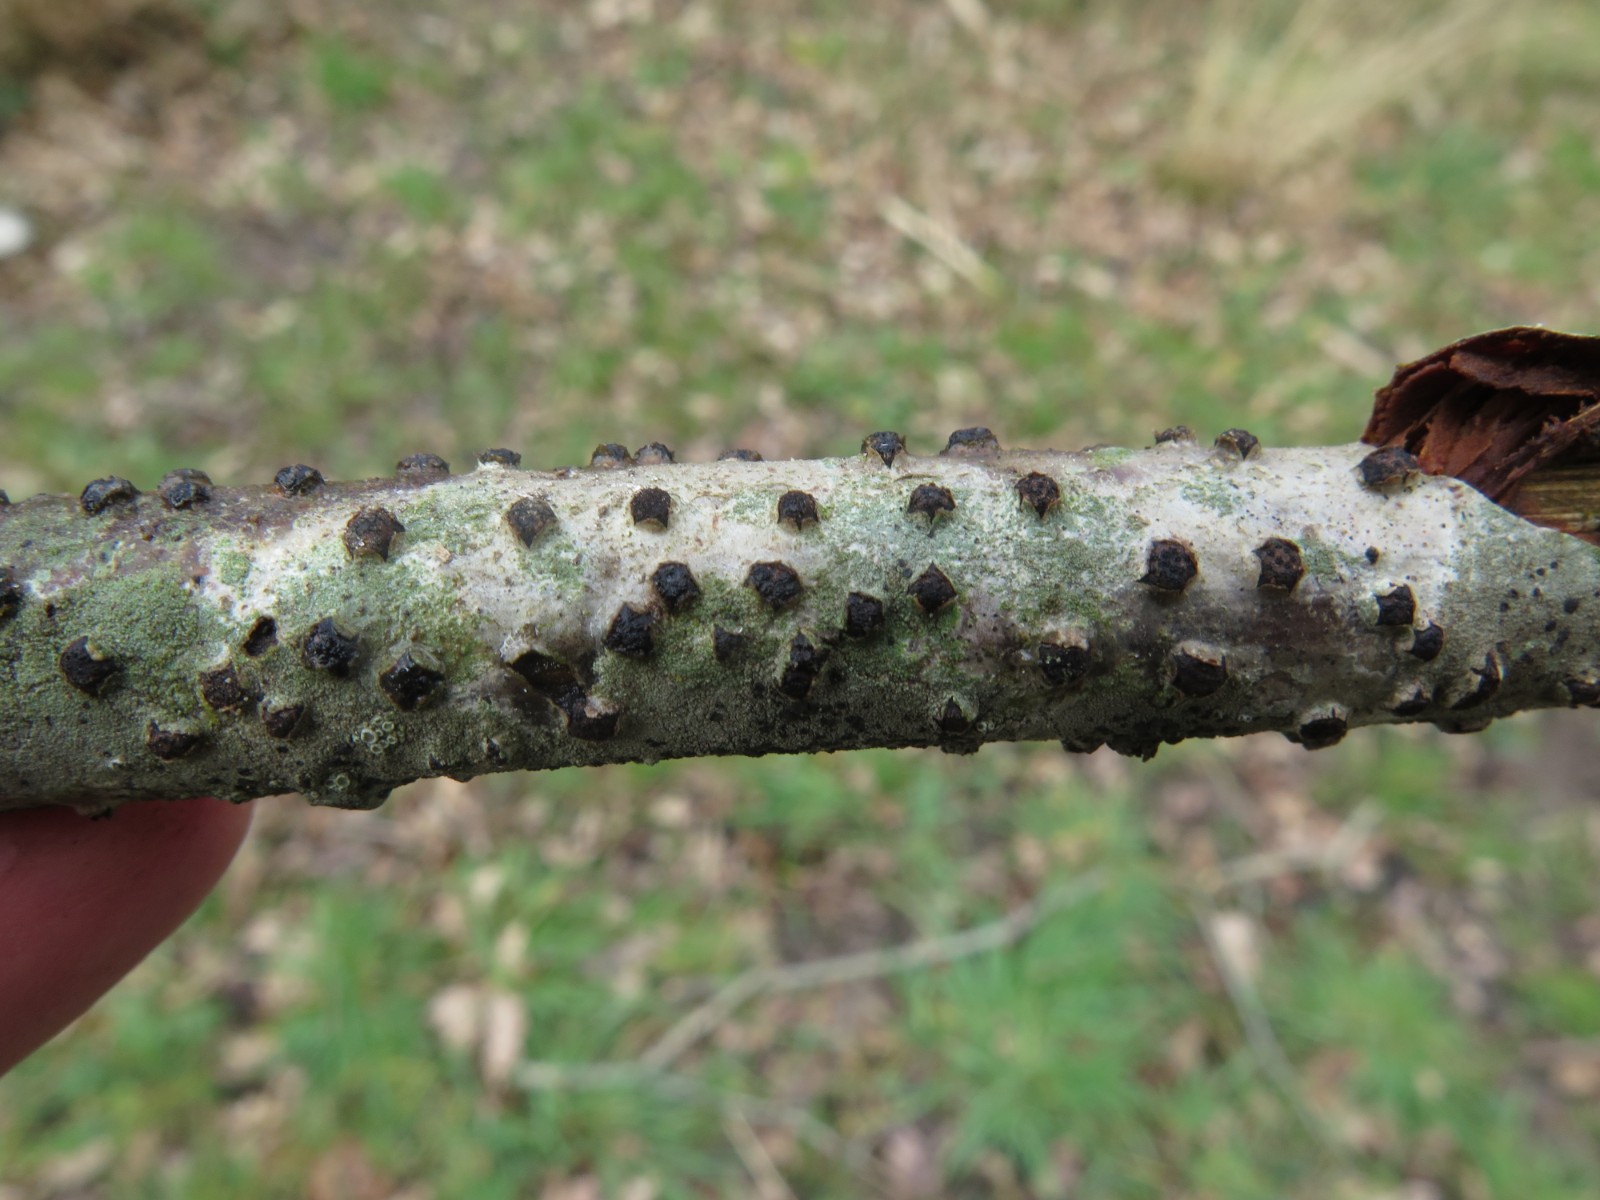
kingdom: Fungi
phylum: Ascomycota
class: Sordariomycetes
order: Xylariales
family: Diatrypaceae
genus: Diatrypella
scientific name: Diatrypella quercina
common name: ege-kulskorpe
